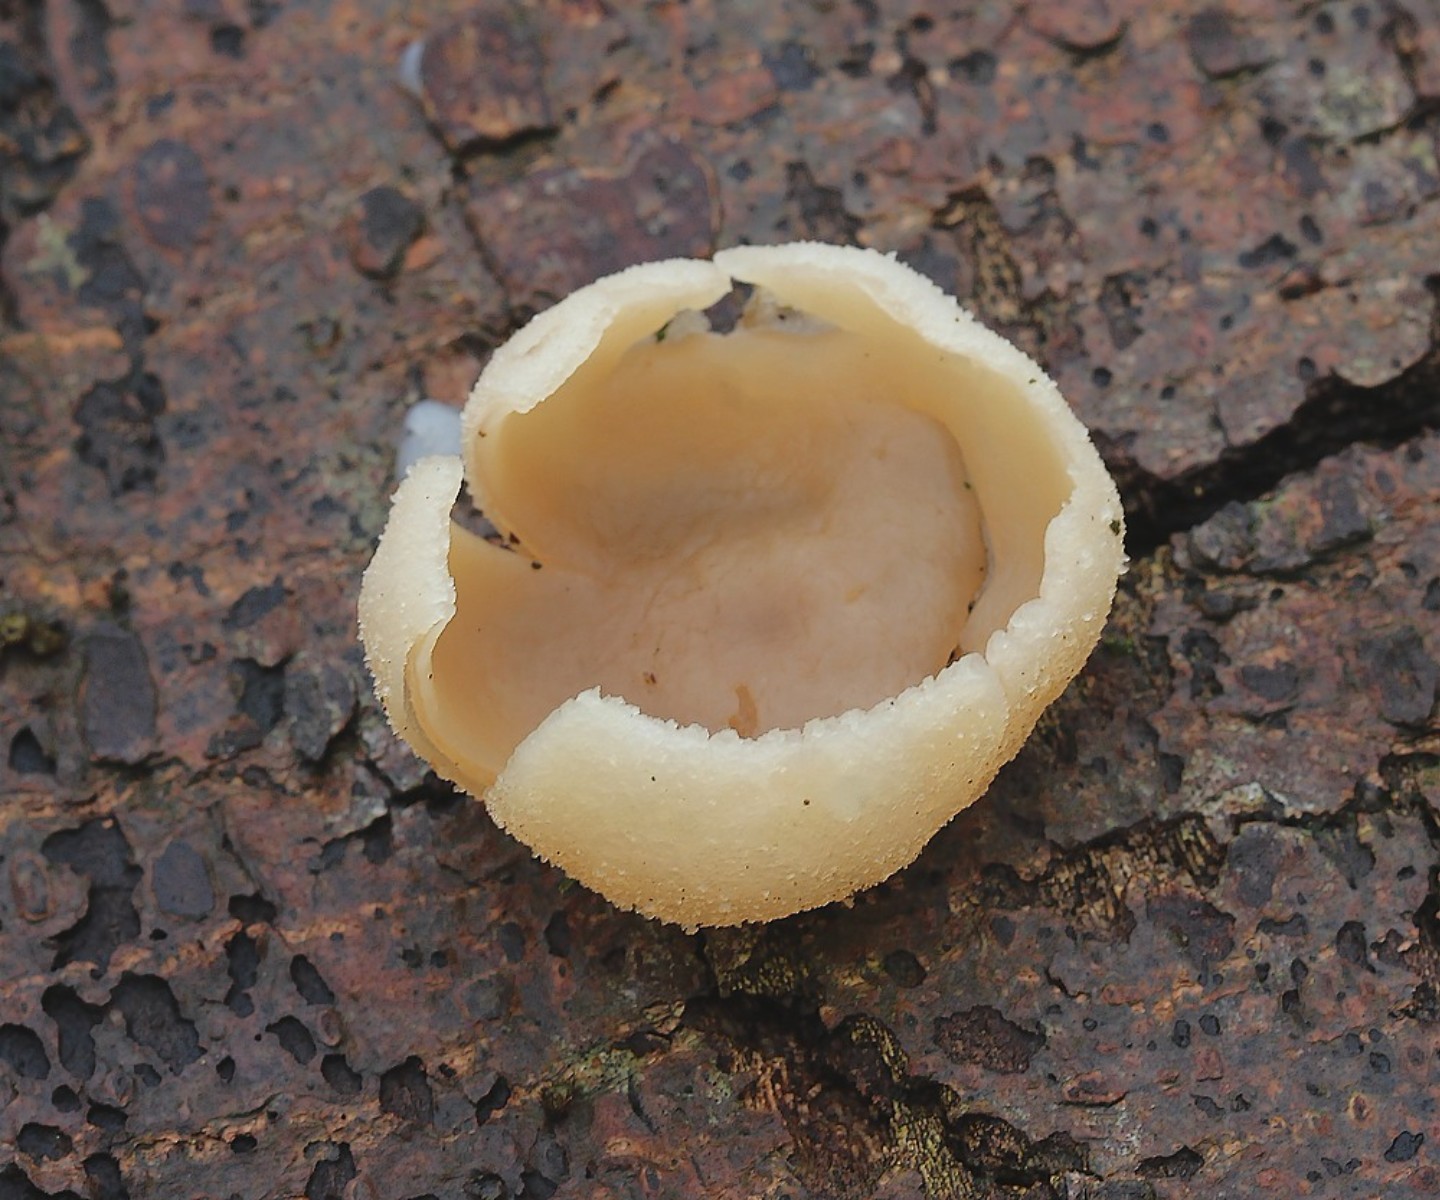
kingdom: Fungi
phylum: Ascomycota
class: Pezizomycetes
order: Pezizales
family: Pezizaceae
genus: Peziza
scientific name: Peziza varia
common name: Ved-bægersvamp
